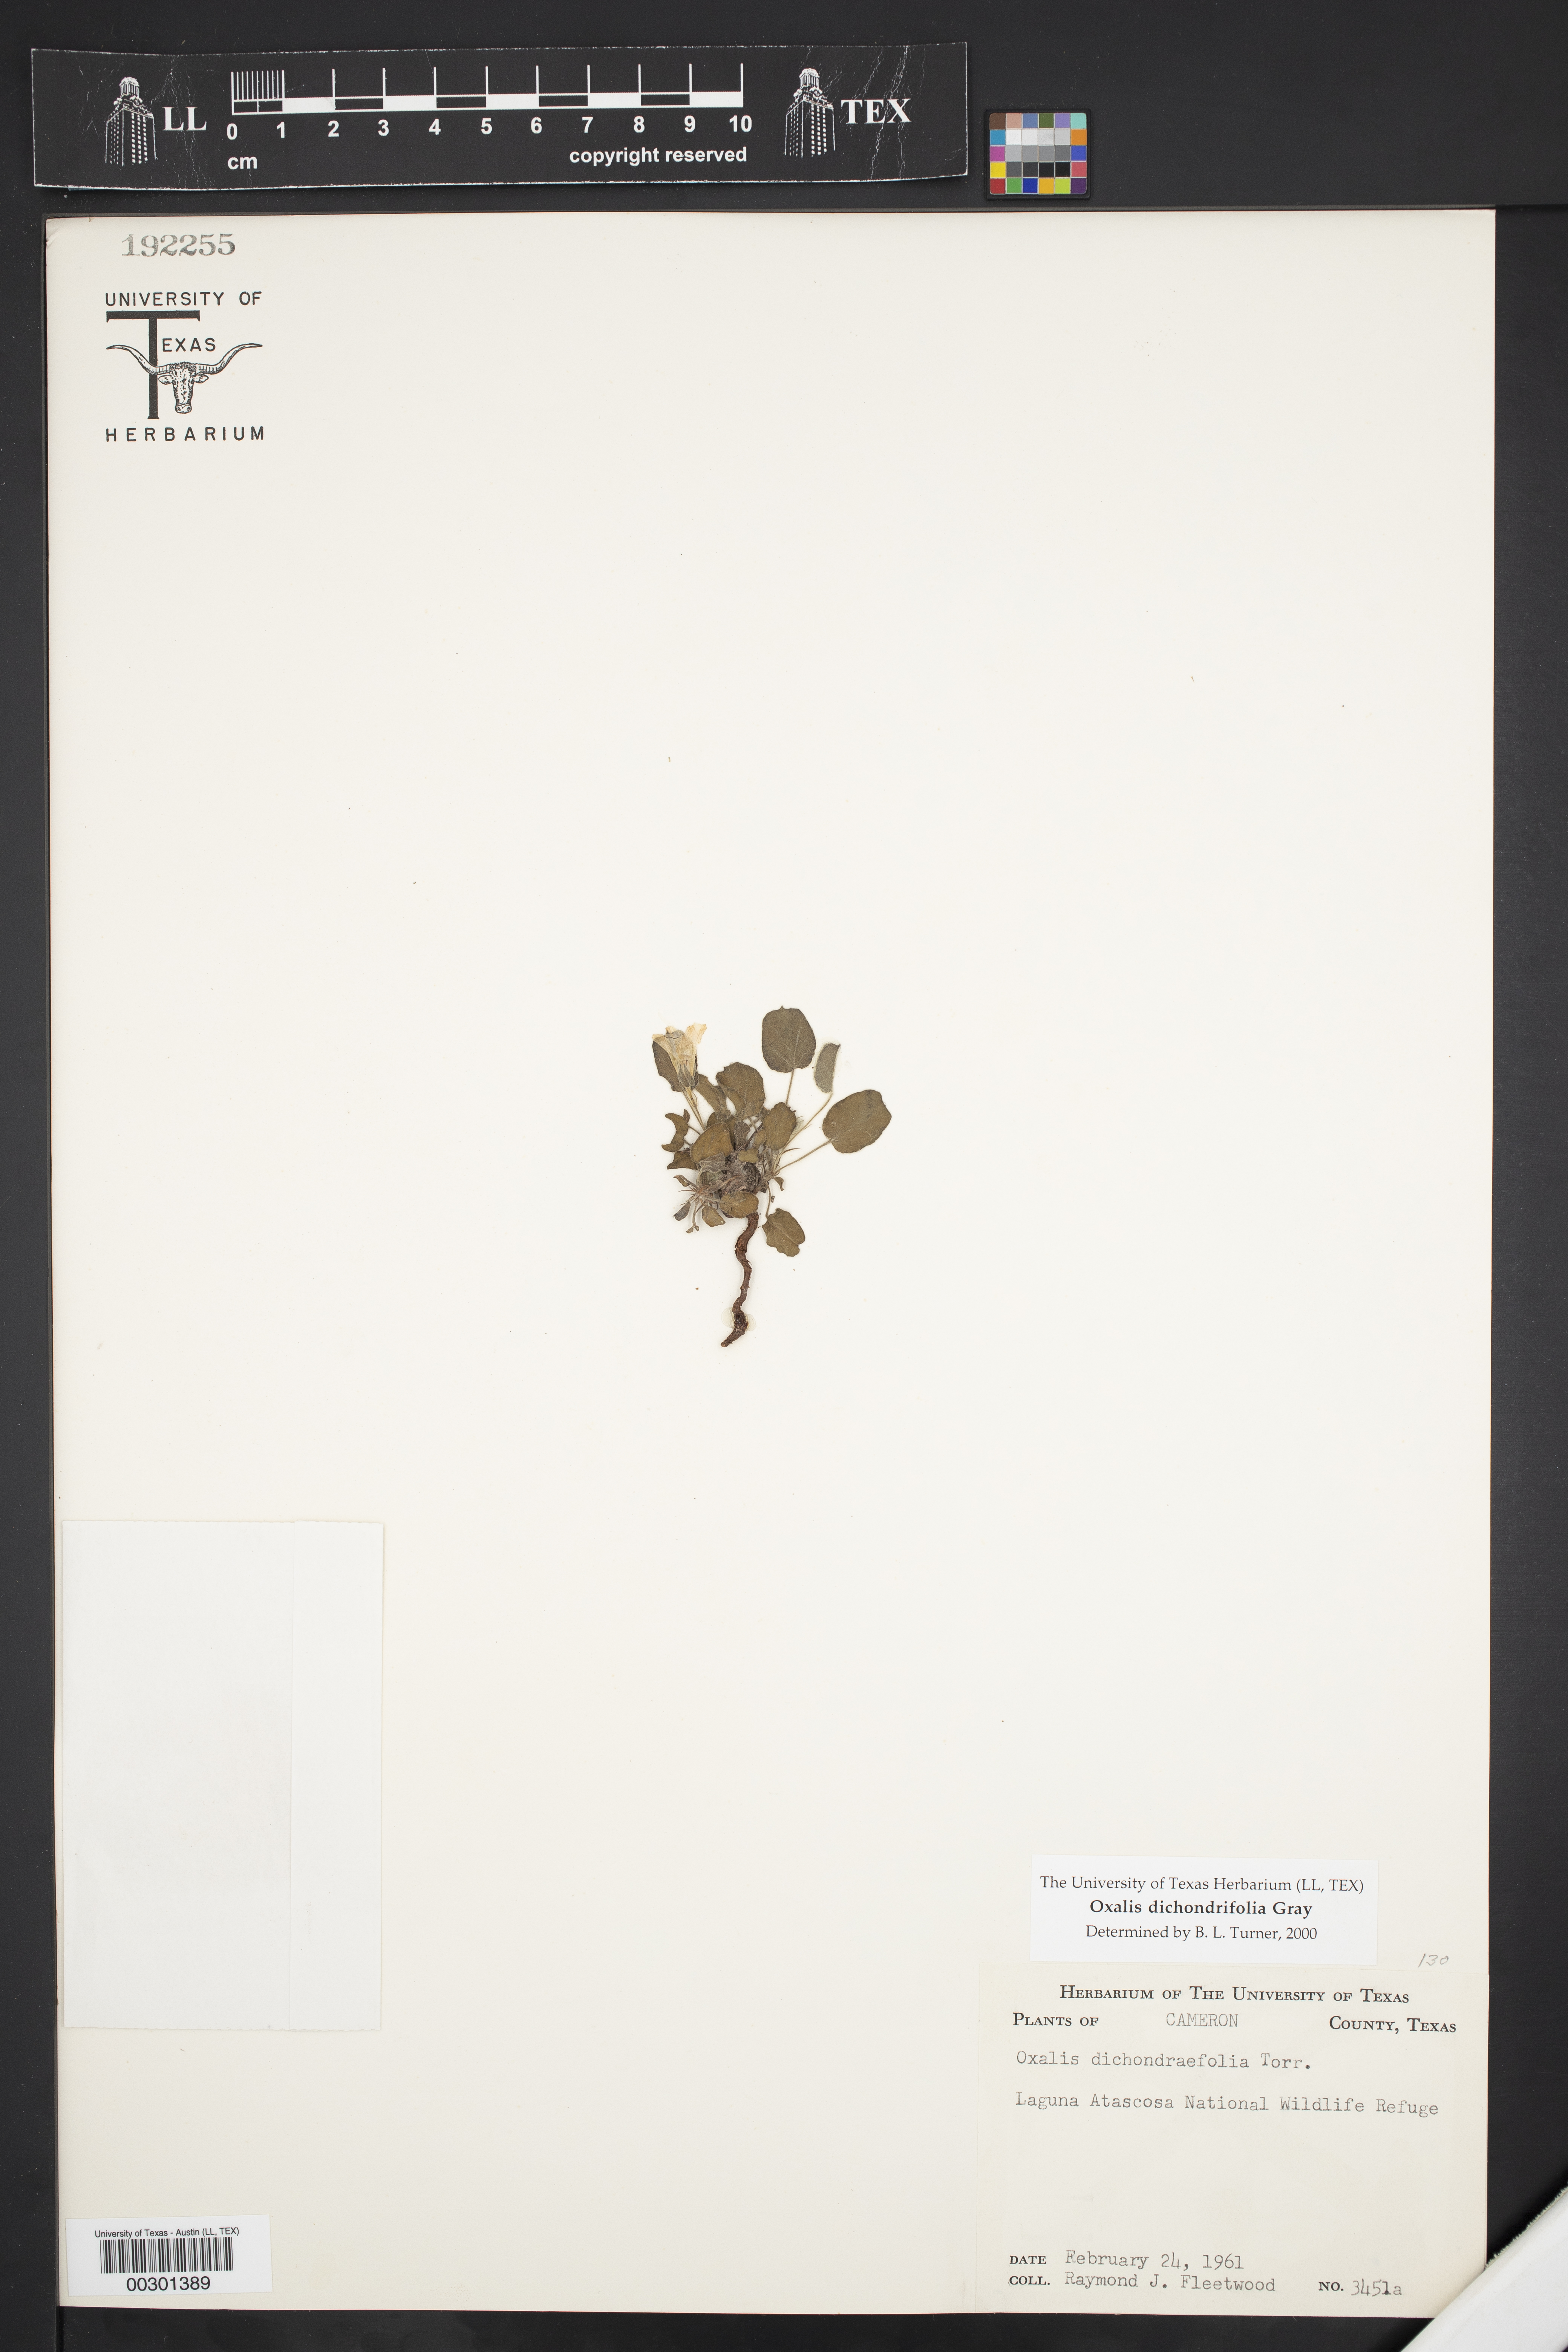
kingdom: Plantae
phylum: Tracheophyta
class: Magnoliopsida
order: Oxalidales
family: Oxalidaceae
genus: Oxalis
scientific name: Oxalis dichondrifolia
